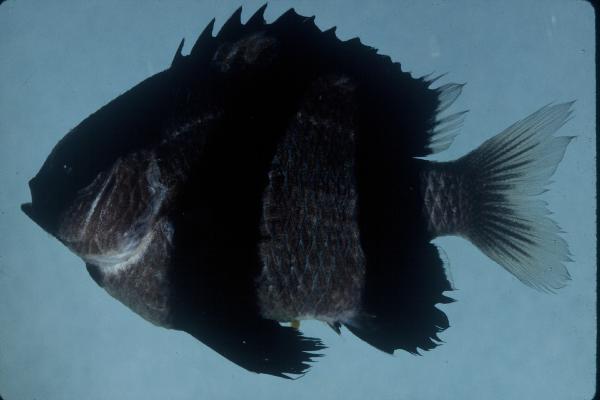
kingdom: Animalia
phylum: Chordata
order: Perciformes
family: Pomacentridae
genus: Dascyllus
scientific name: Dascyllus aruanus
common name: Humbug dascyllus
